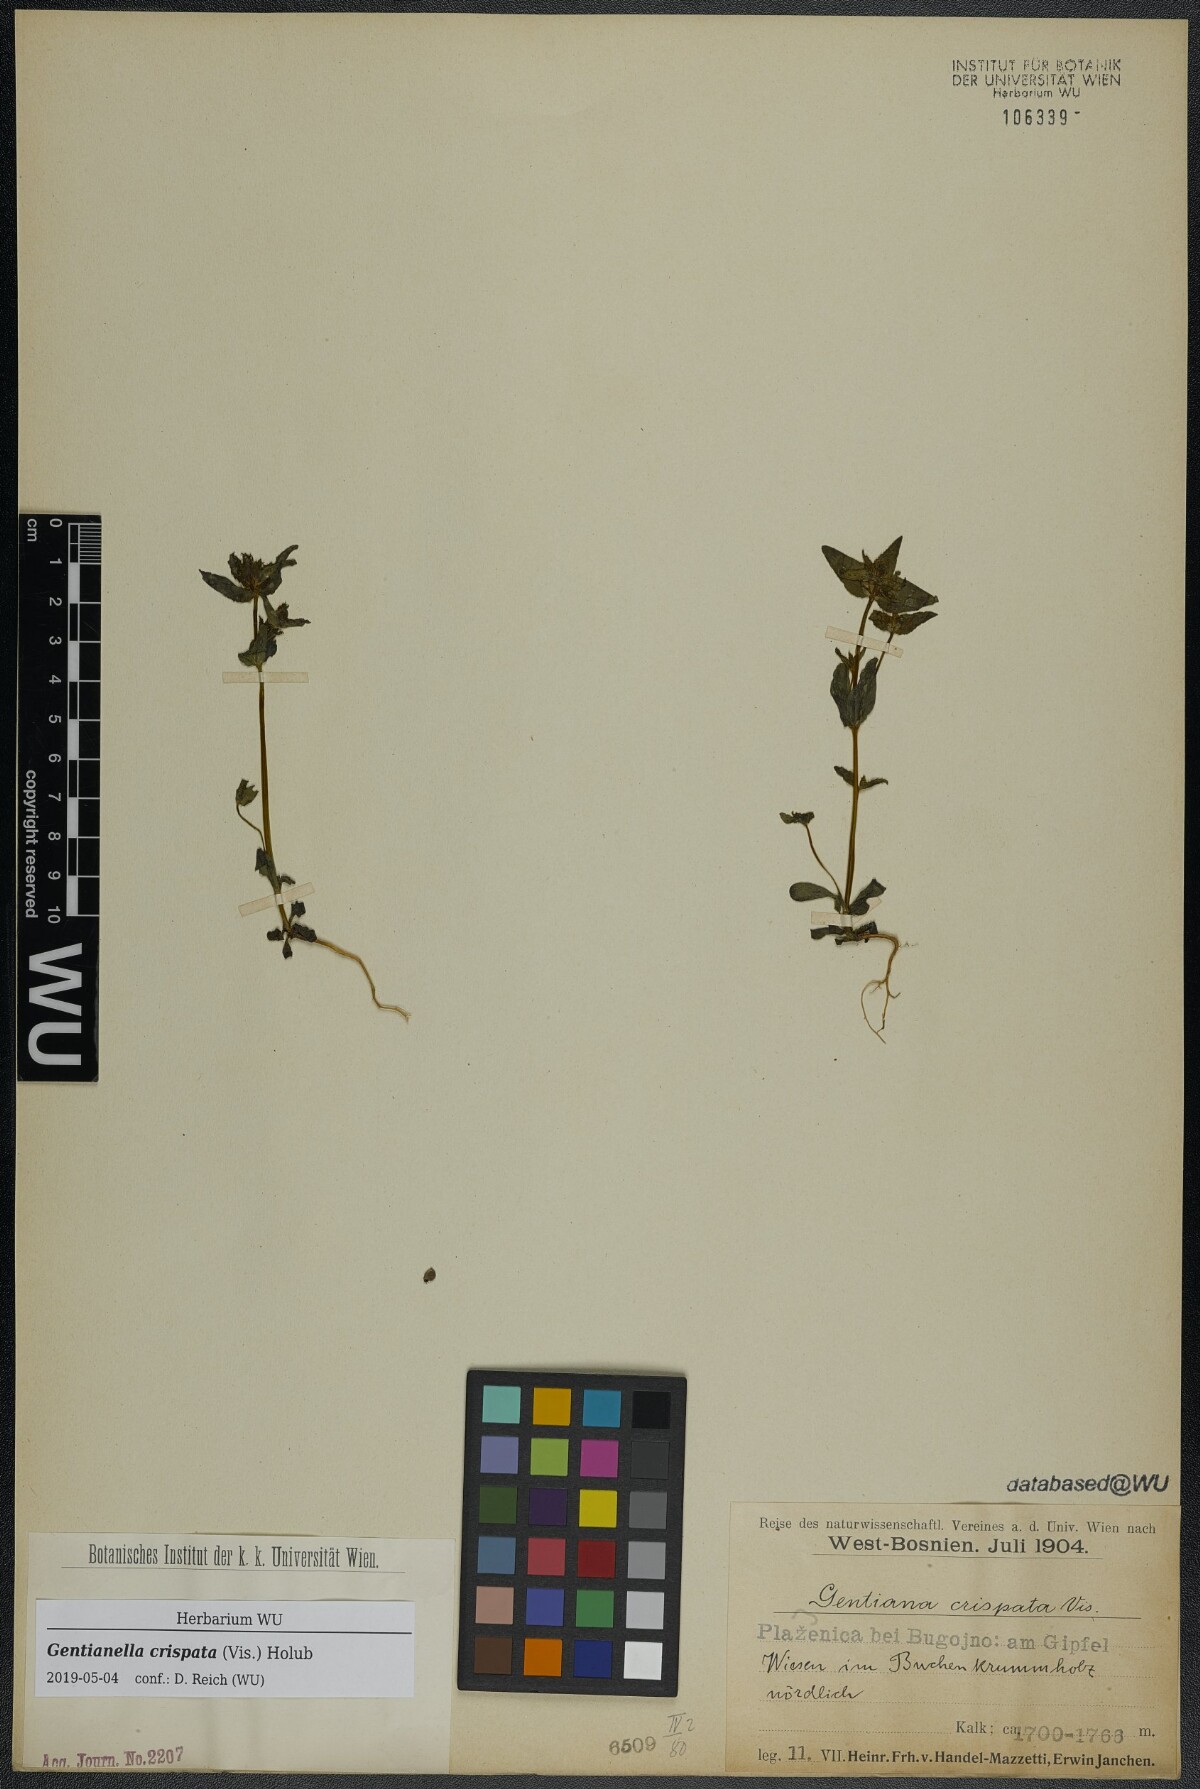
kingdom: Plantae
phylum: Tracheophyta
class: Magnoliopsida
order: Gentianales
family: Gentianaceae
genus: Gentianella
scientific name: Gentianella crispata
